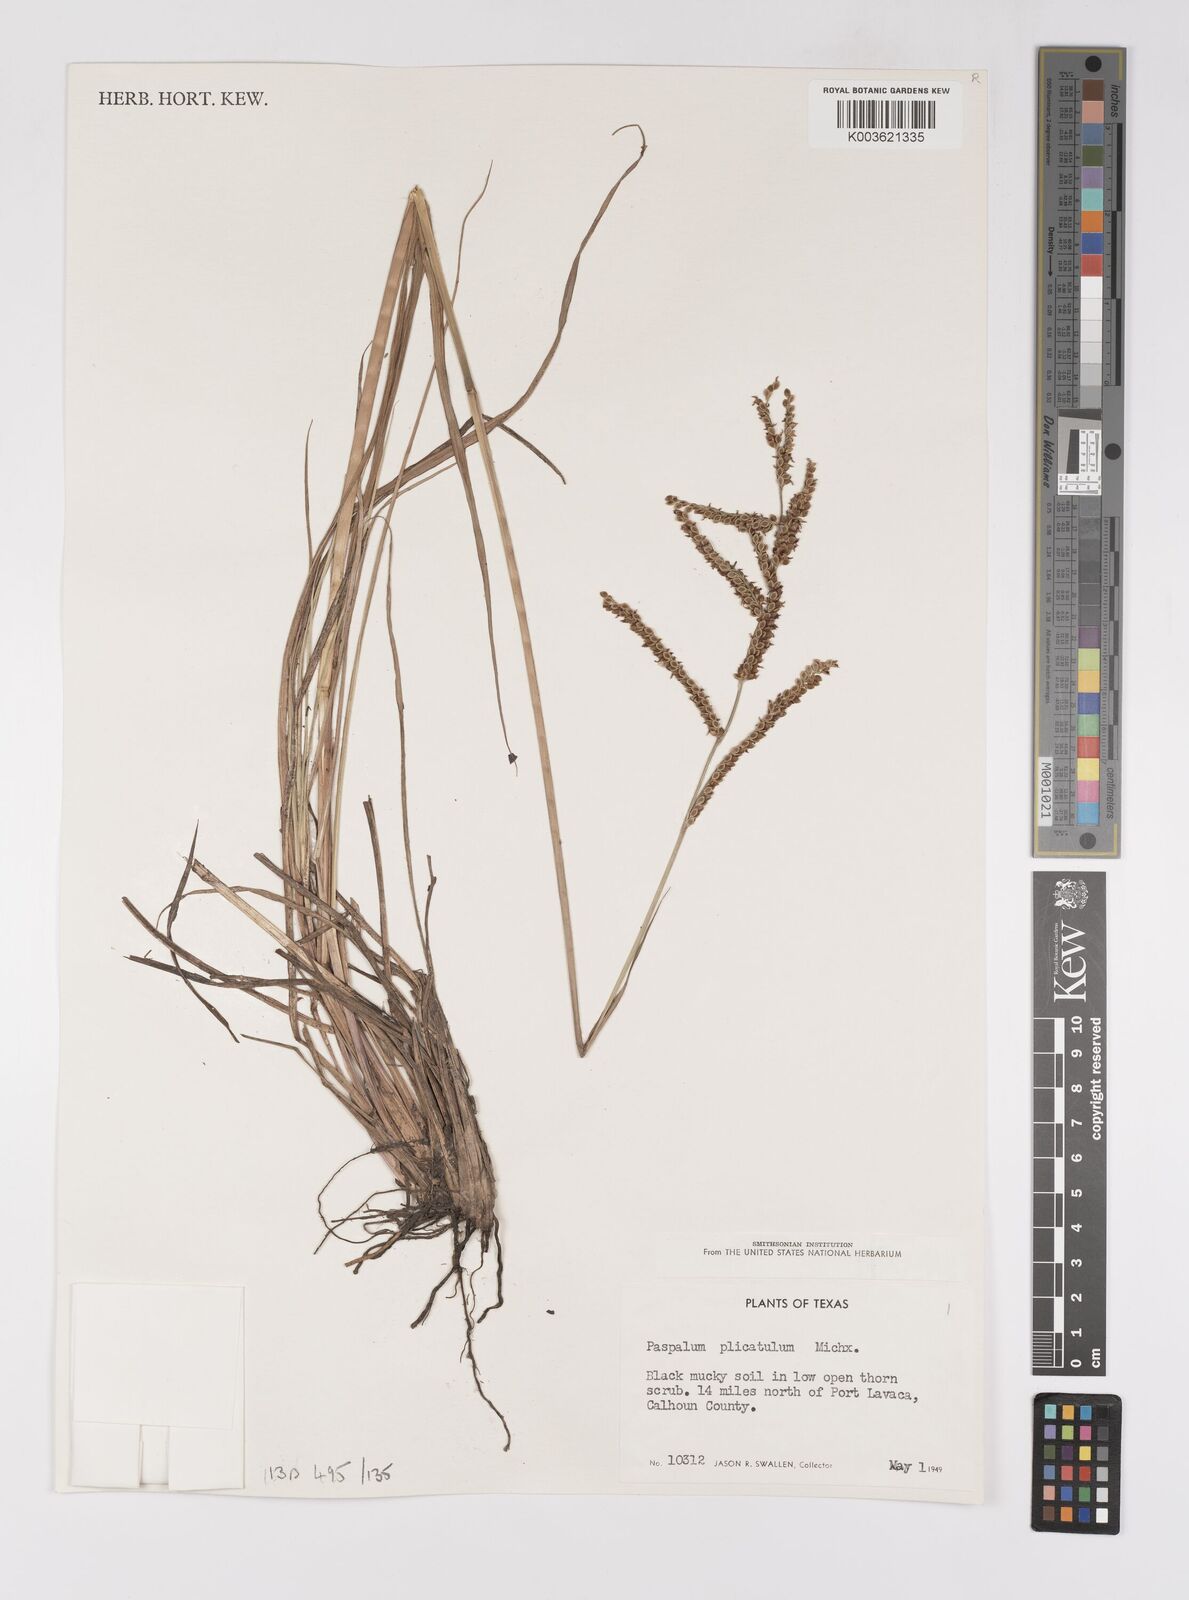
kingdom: Plantae
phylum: Tracheophyta
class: Liliopsida
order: Poales
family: Poaceae
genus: Paspalum
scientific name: Paspalum plicatulum
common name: Top paspalum
